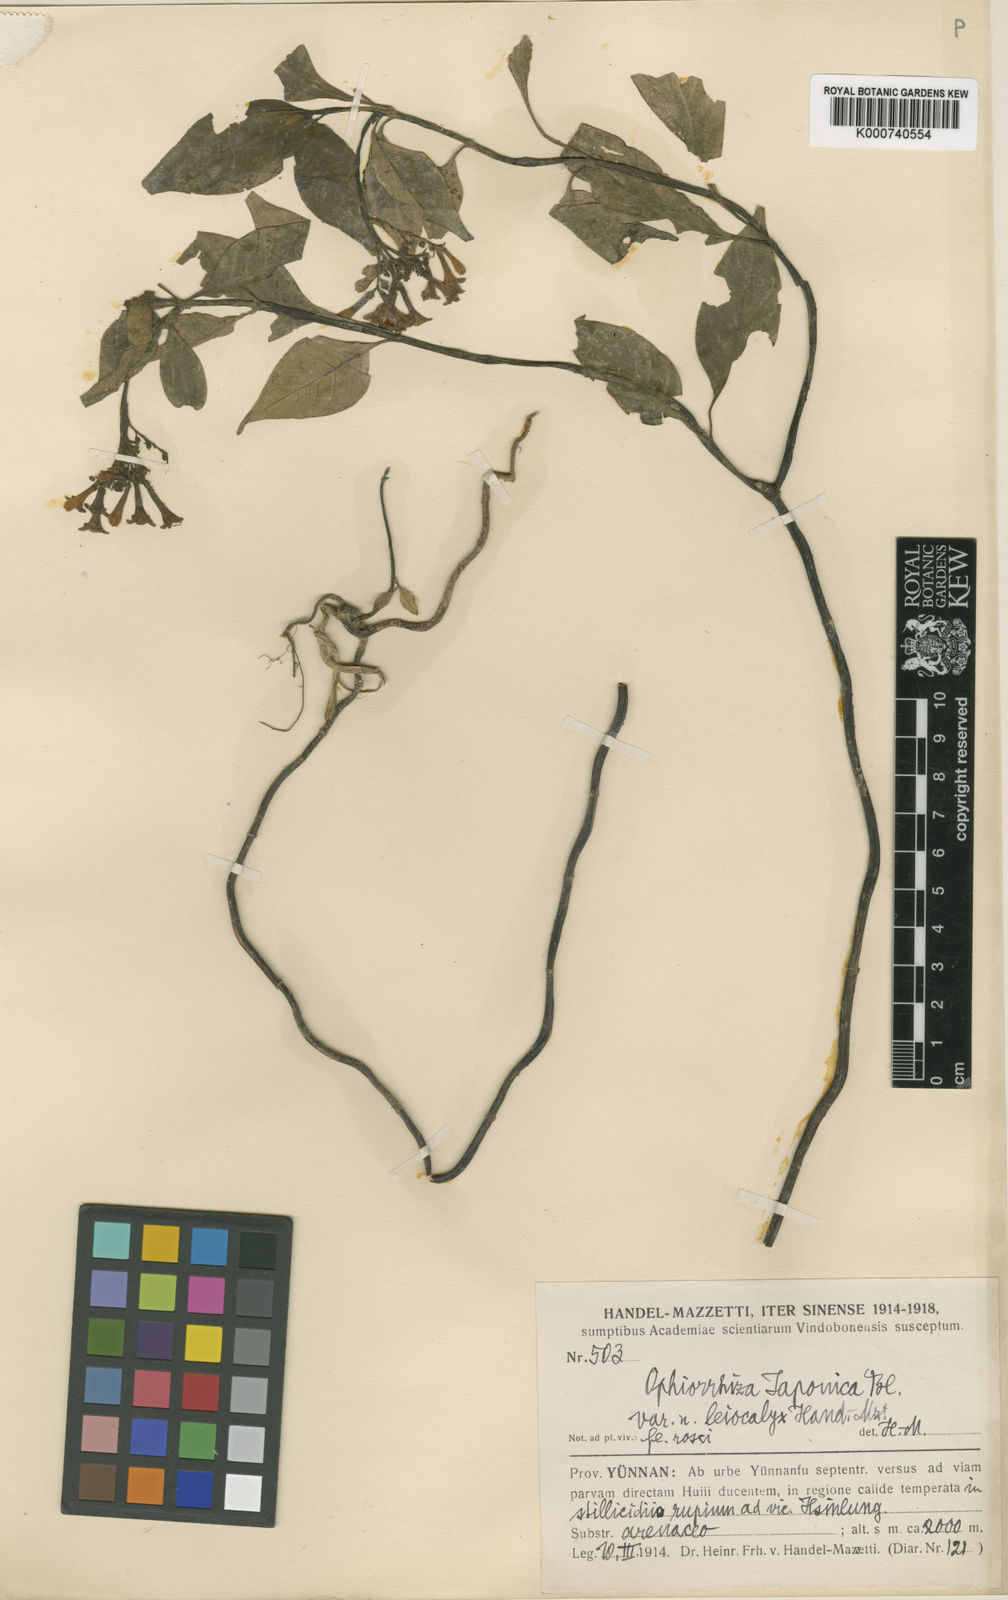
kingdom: Plantae
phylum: Tracheophyta
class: Magnoliopsida
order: Gentianales
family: Rubiaceae
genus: Ophiorrhiza
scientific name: Ophiorrhiza japonica
